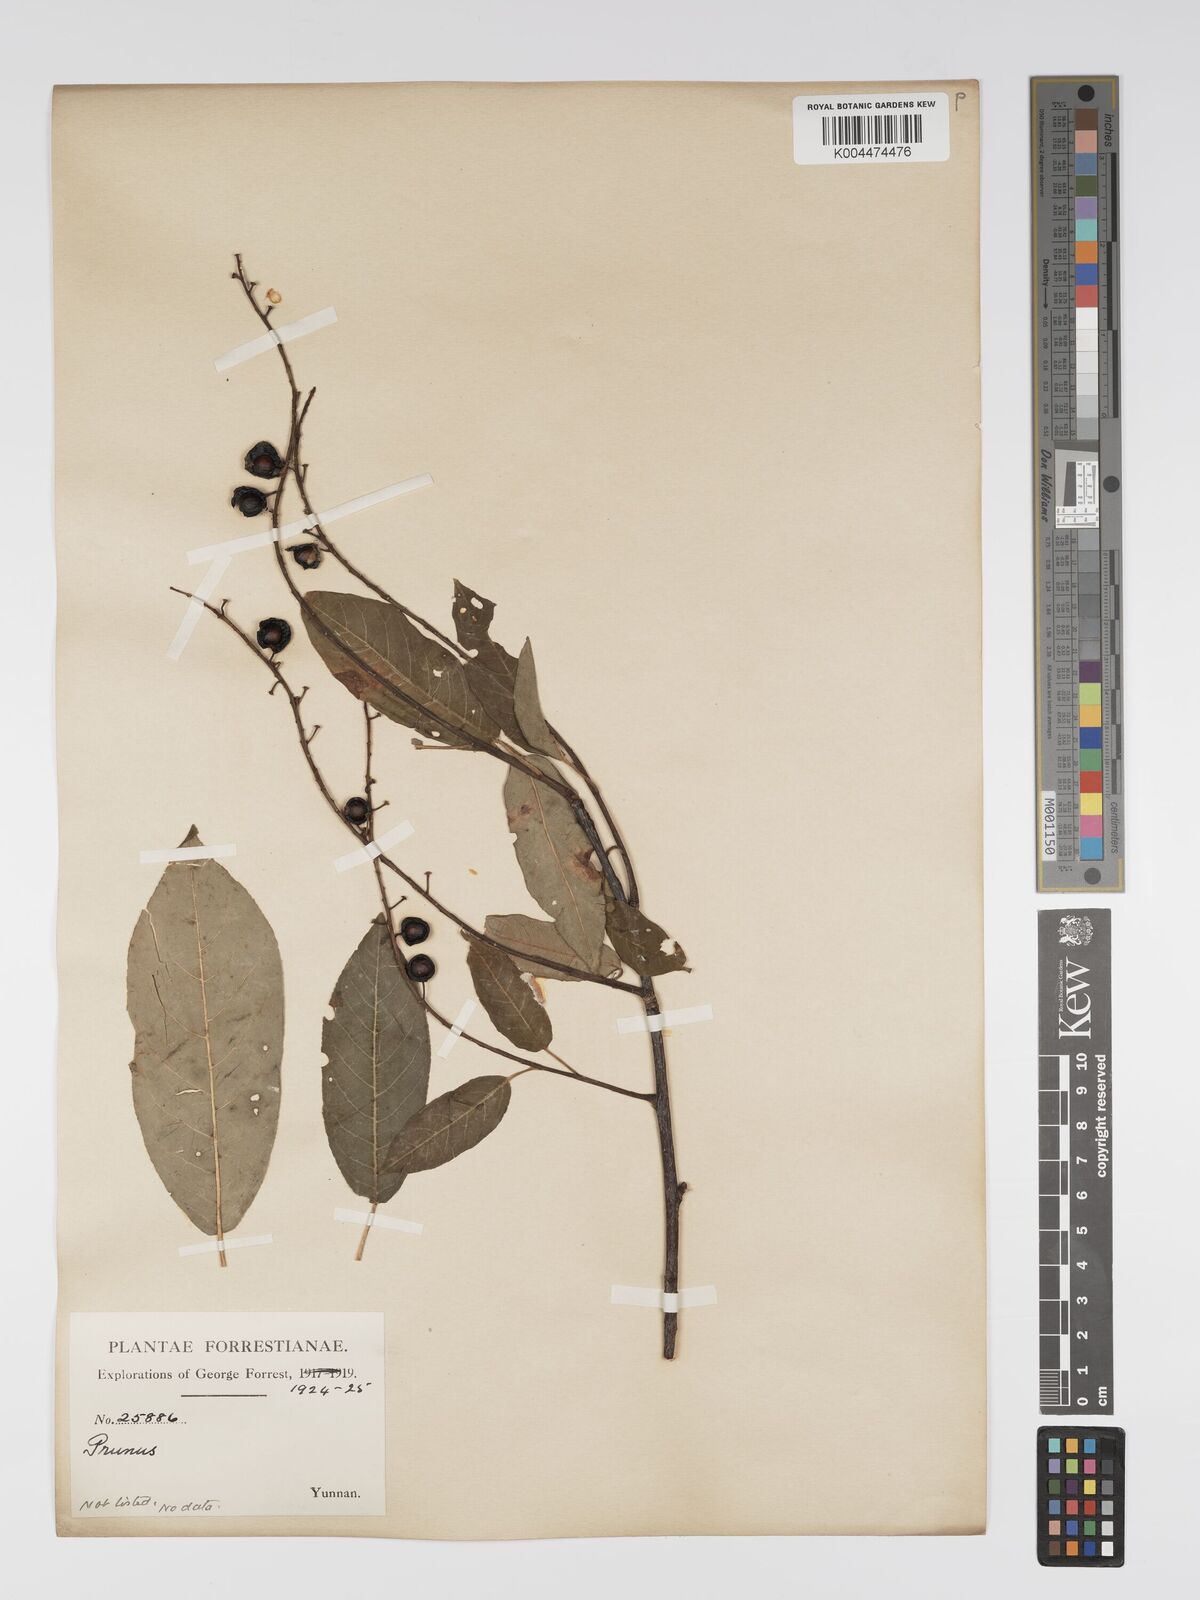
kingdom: Plantae
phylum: Tracheophyta
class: Magnoliopsida
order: Rosales
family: Rosaceae
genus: Prunus
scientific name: Prunus
